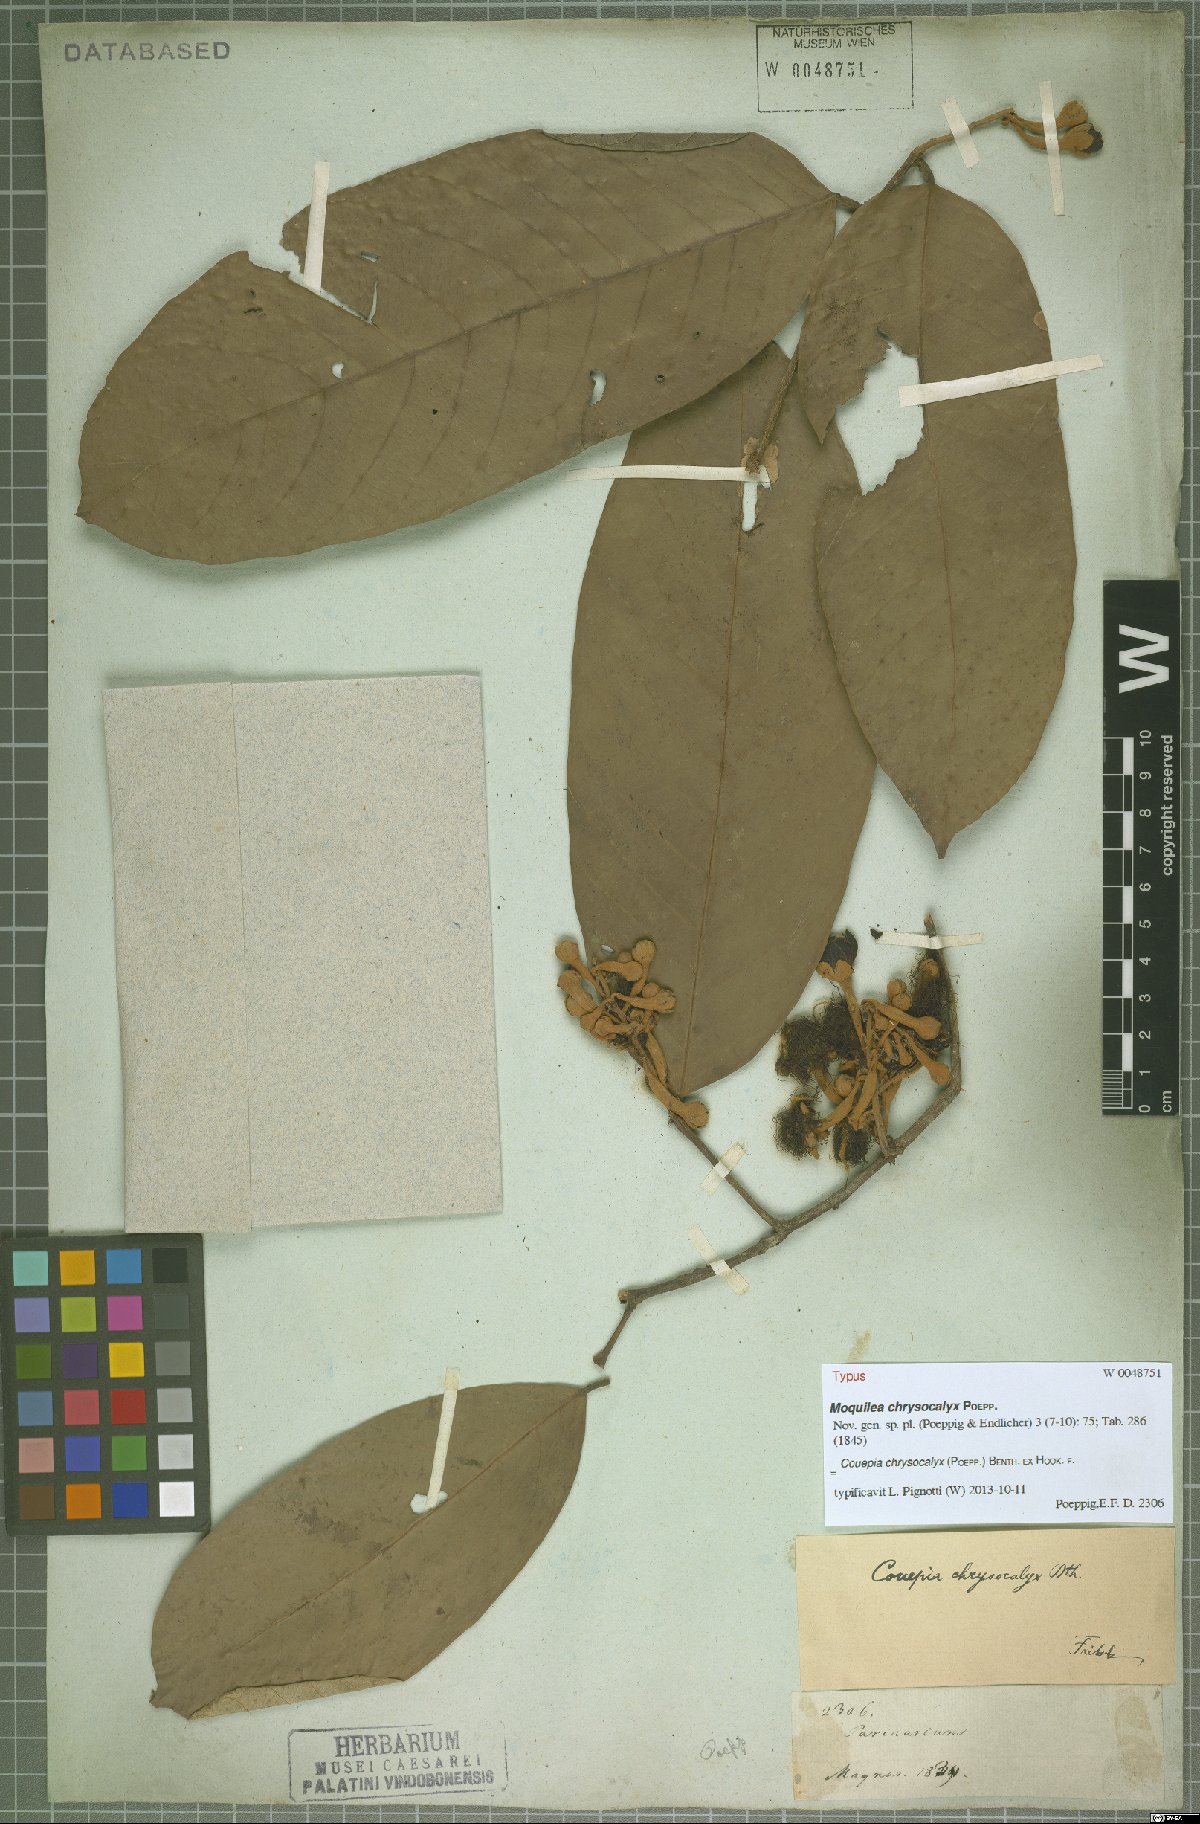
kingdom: Plantae
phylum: Tracheophyta
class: Magnoliopsida
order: Malpighiales
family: Chrysobalanaceae
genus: Couepia
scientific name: Couepia chrysocalyx
